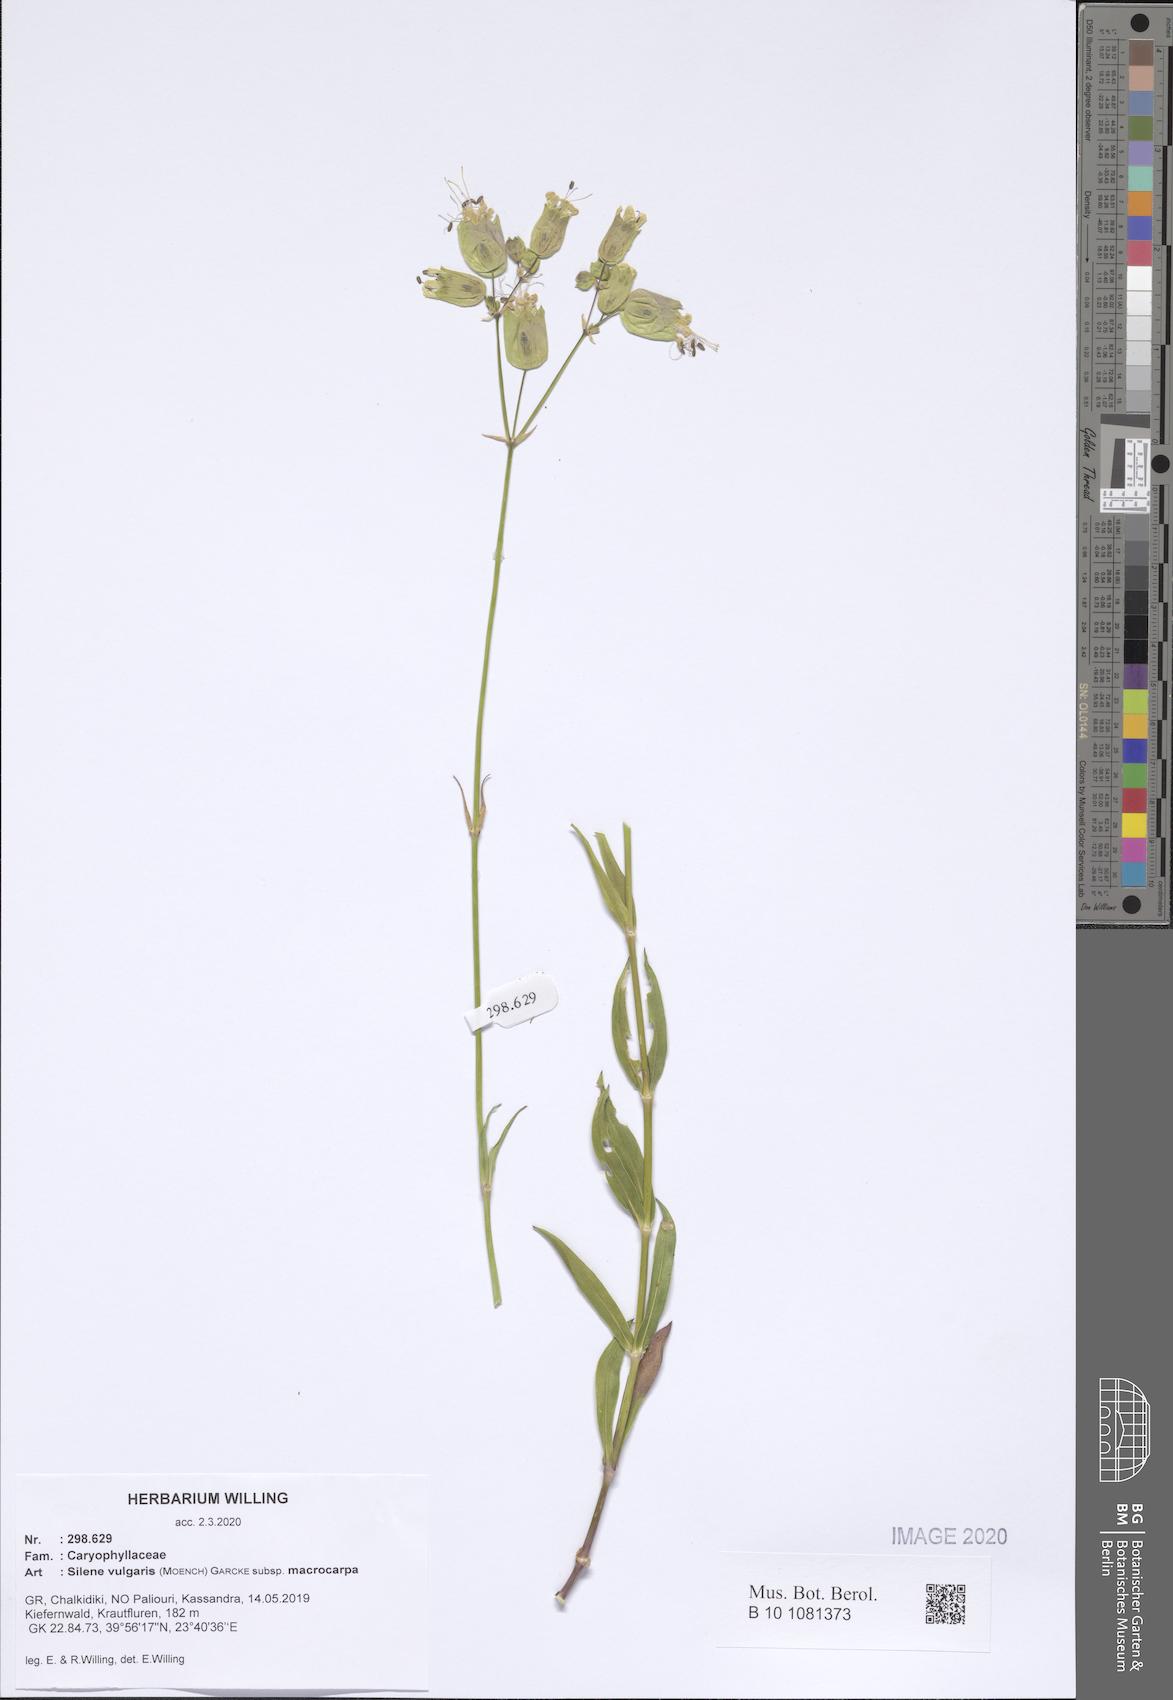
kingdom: Plantae
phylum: Tracheophyta
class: Magnoliopsida
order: Caryophyllales
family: Caryophyllaceae
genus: Silene
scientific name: Silene vulgaris
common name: Bladder campion
